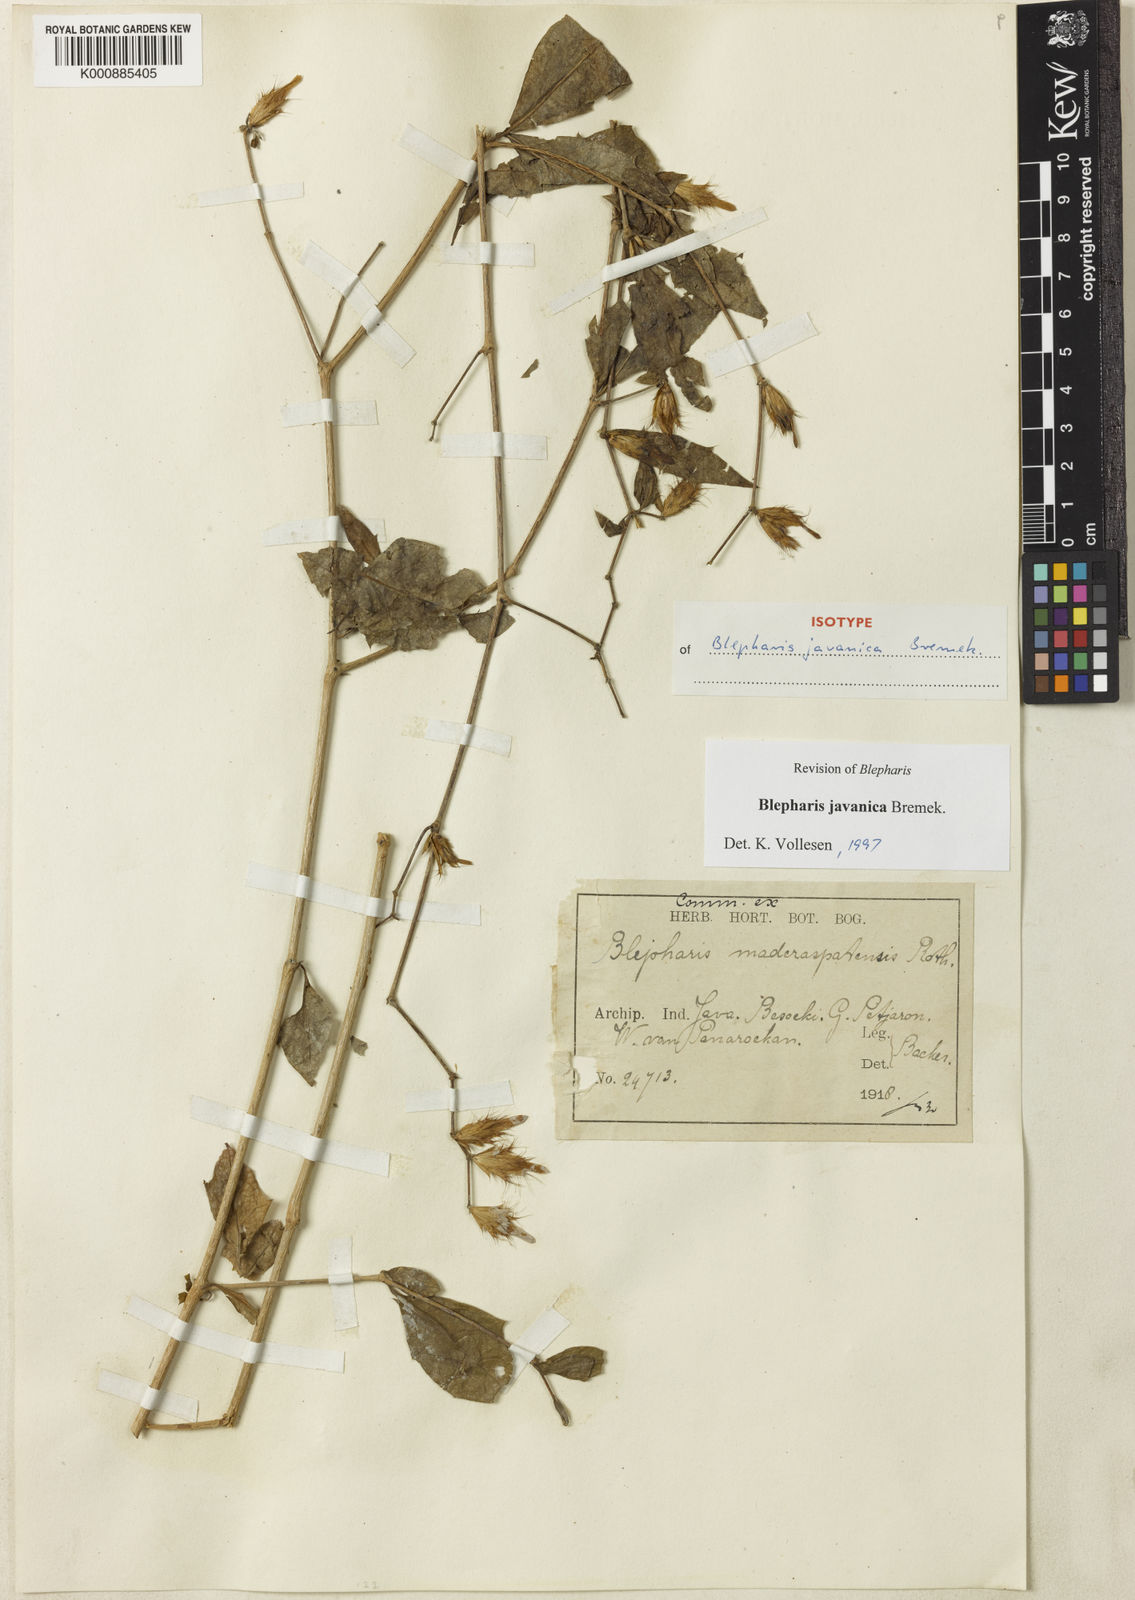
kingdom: Plantae
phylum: Tracheophyta
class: Magnoliopsida
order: Lamiales
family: Acanthaceae
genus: Blepharis
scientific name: Blepharis javanica
